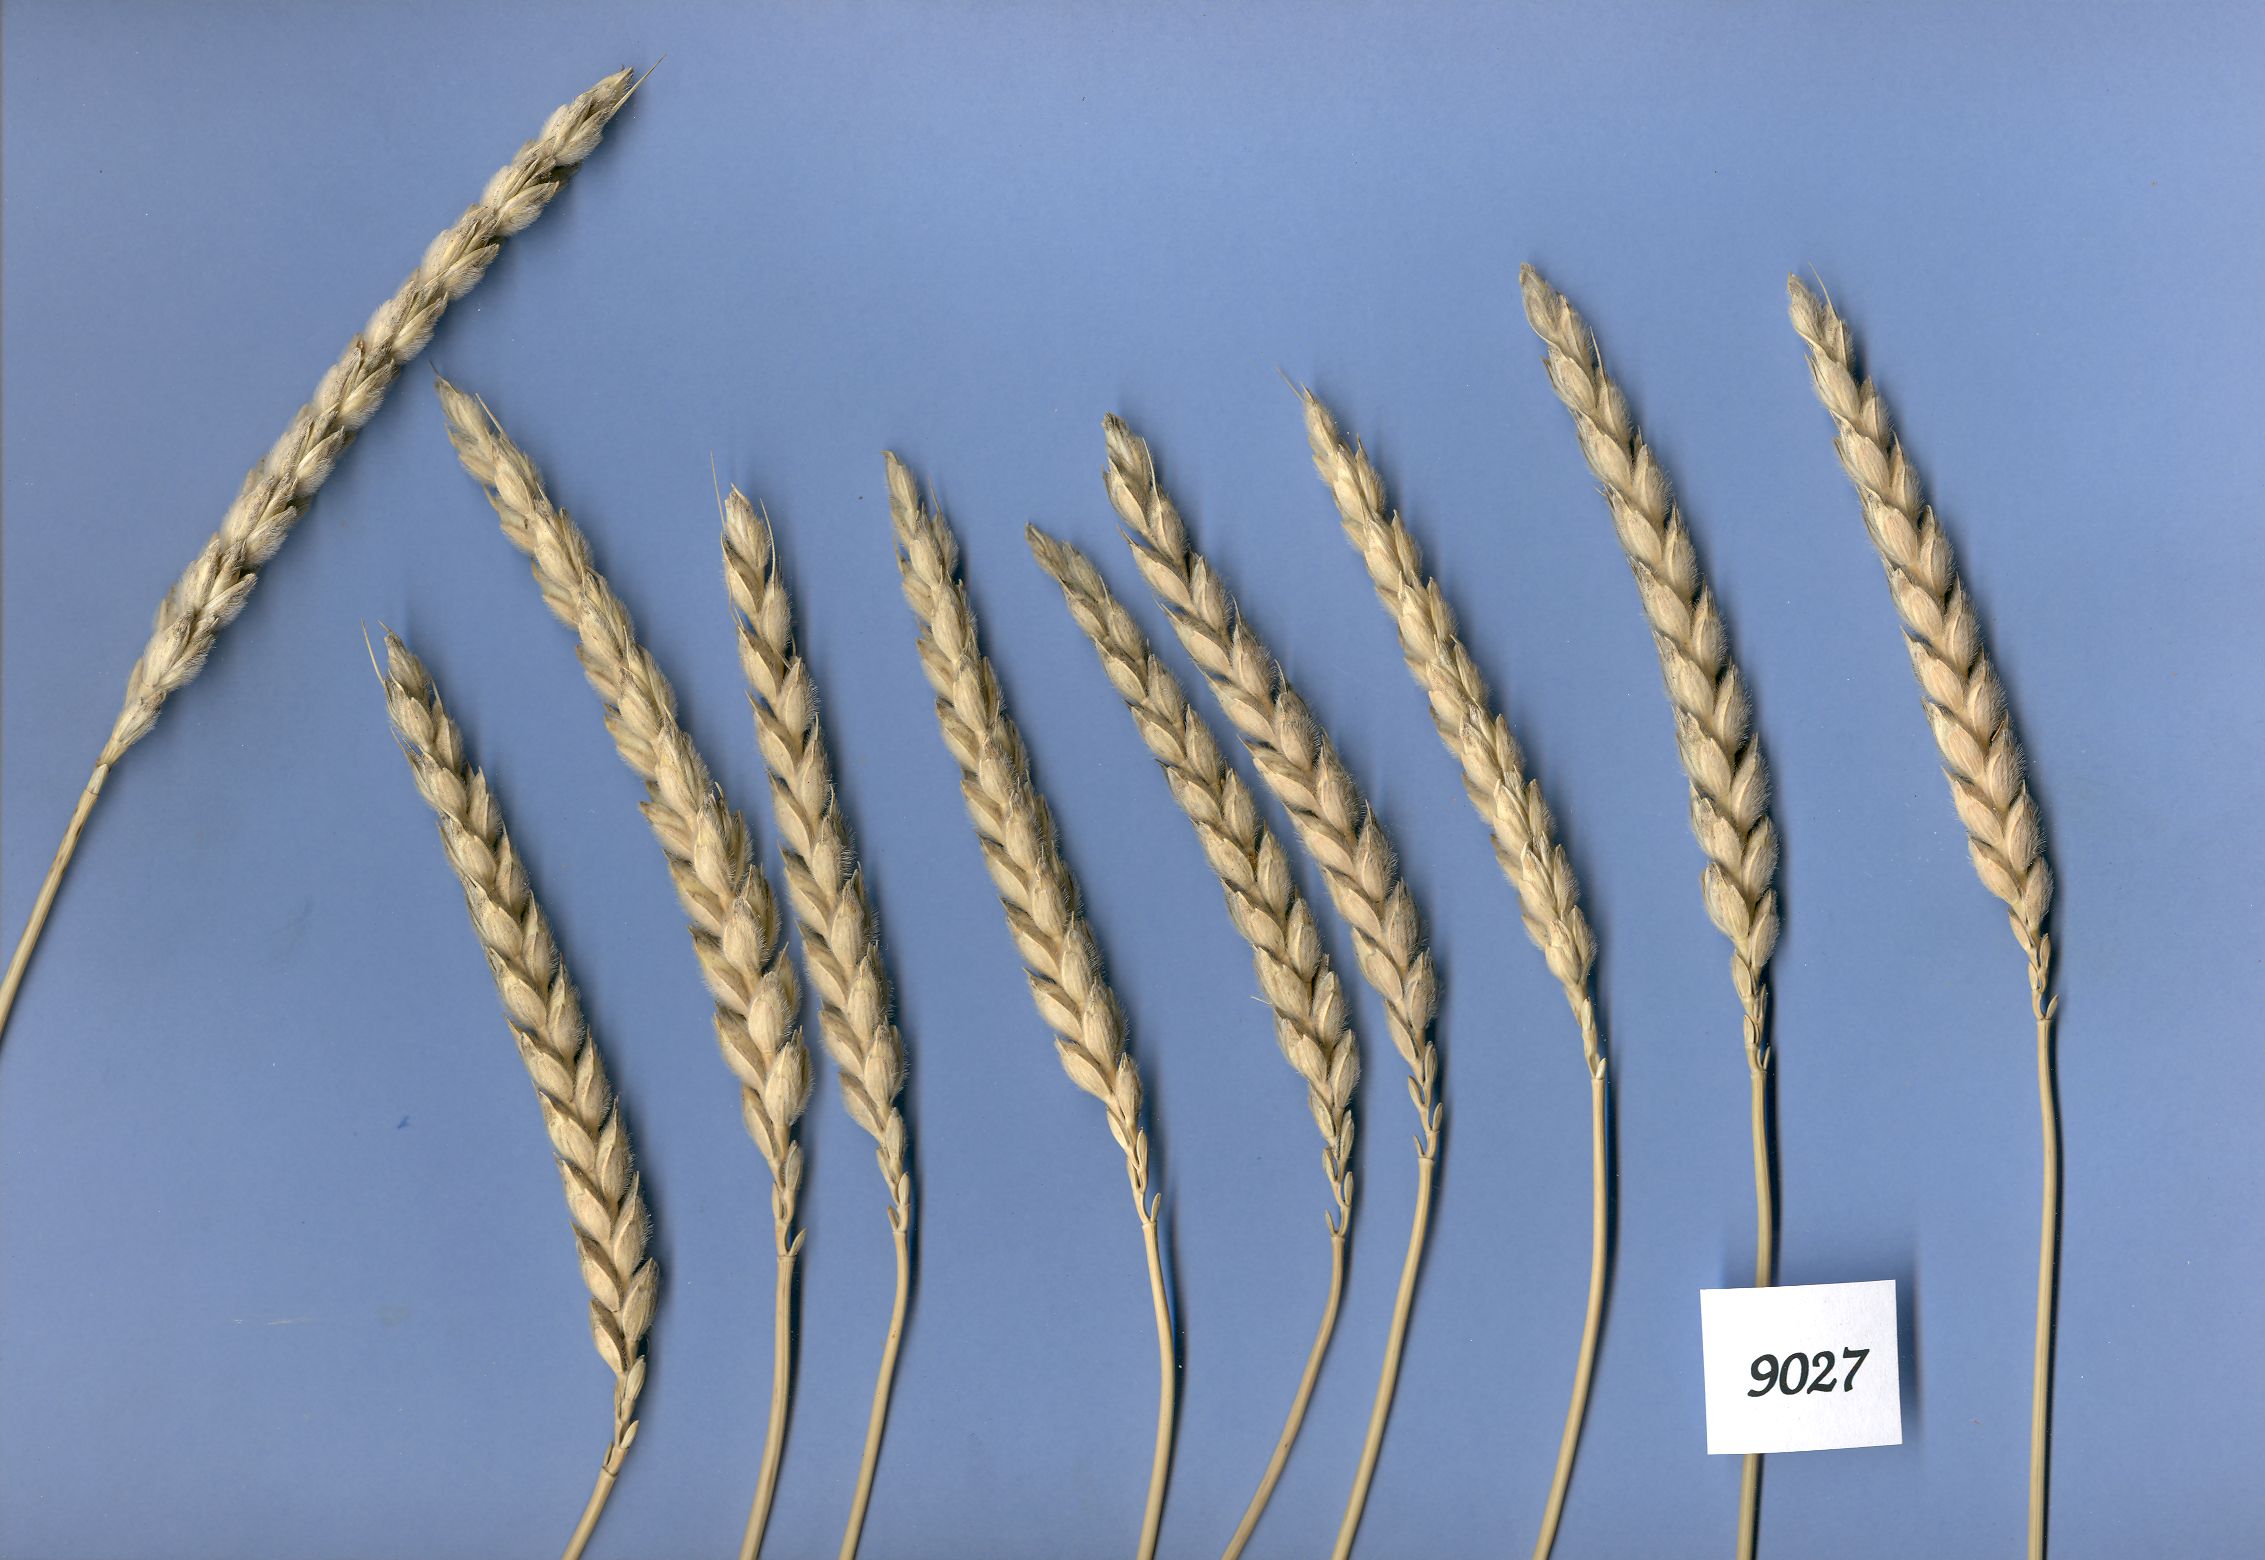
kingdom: Plantae
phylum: Tracheophyta
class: Liliopsida
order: Poales
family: Poaceae
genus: Triticum
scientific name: Triticum aestivum
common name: Common wheat
